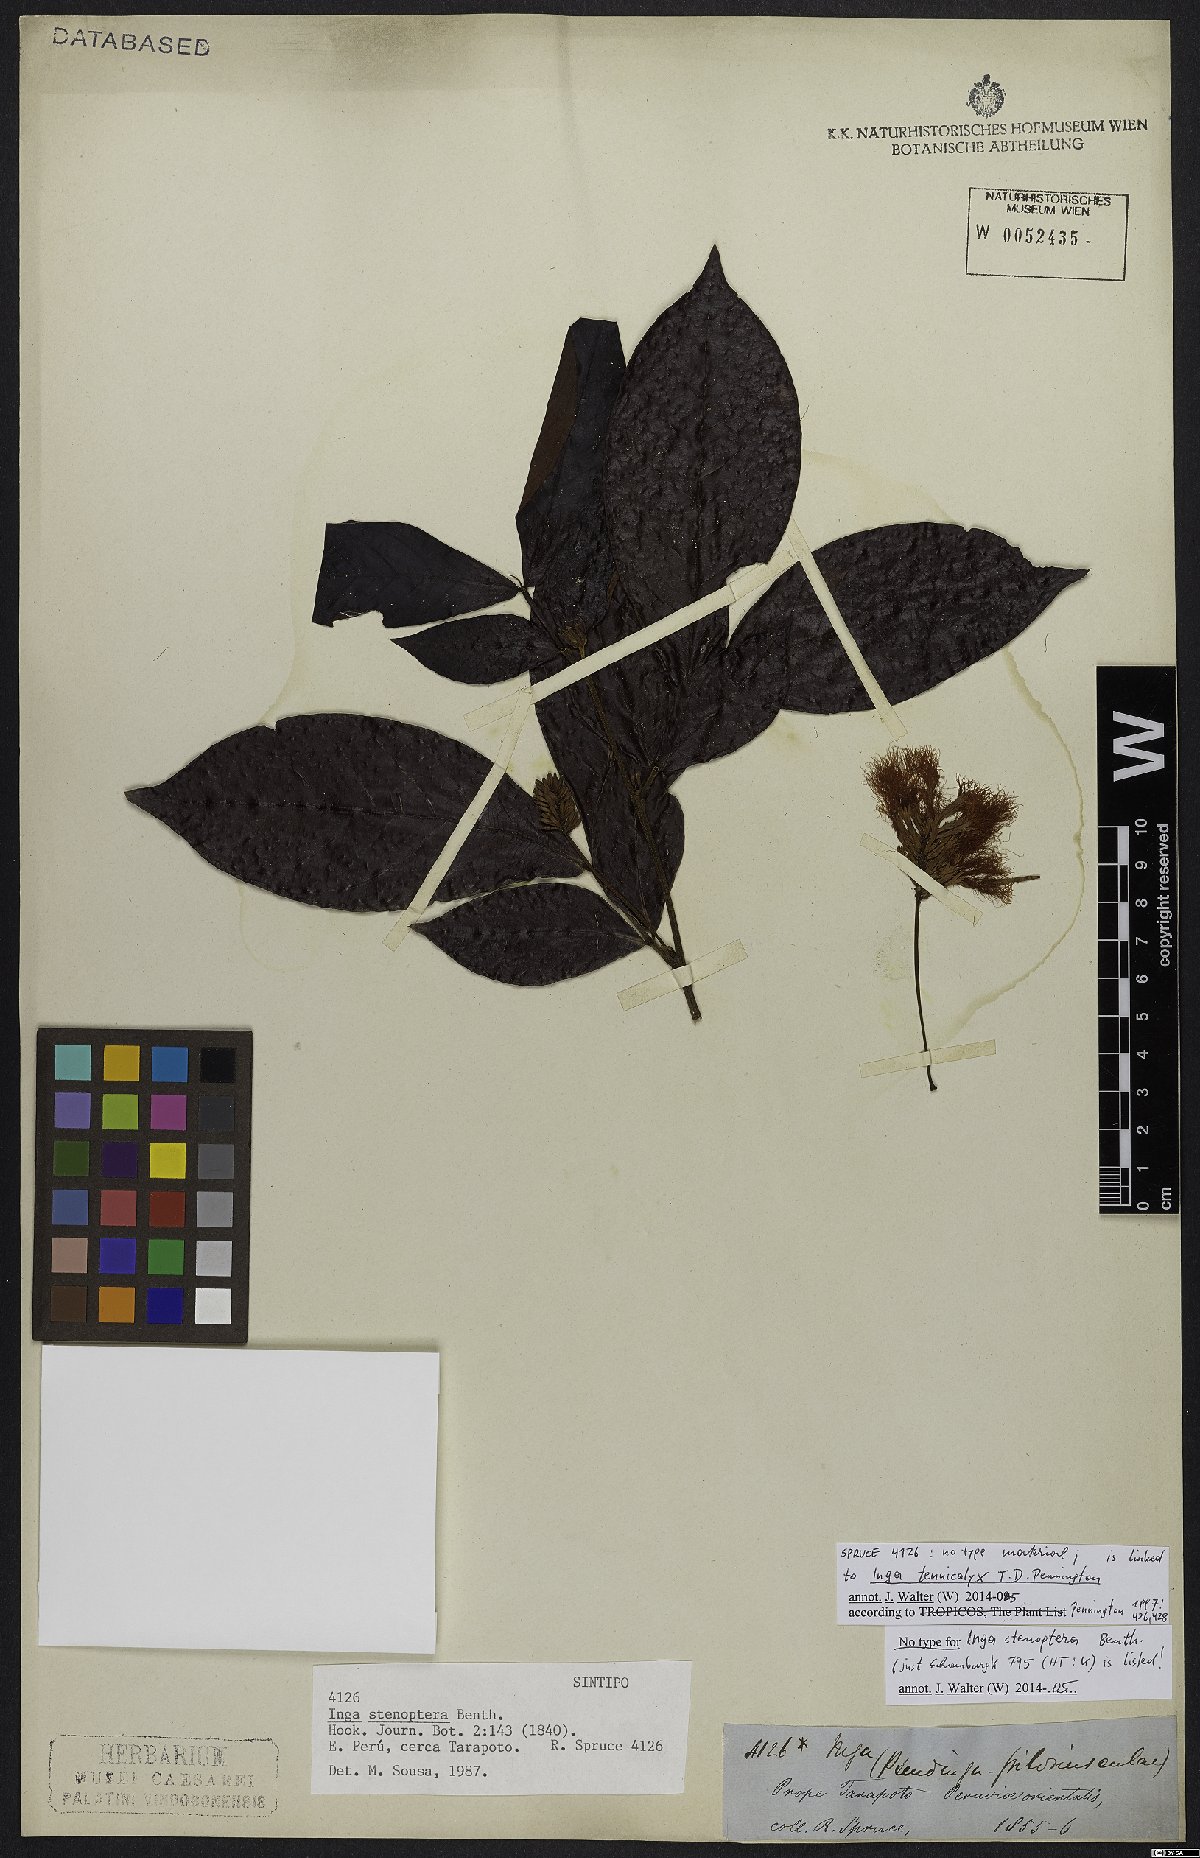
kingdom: Plantae
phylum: Tracheophyta
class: Magnoliopsida
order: Fabales
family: Fabaceae
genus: Inga
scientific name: Inga tenuicalyx
